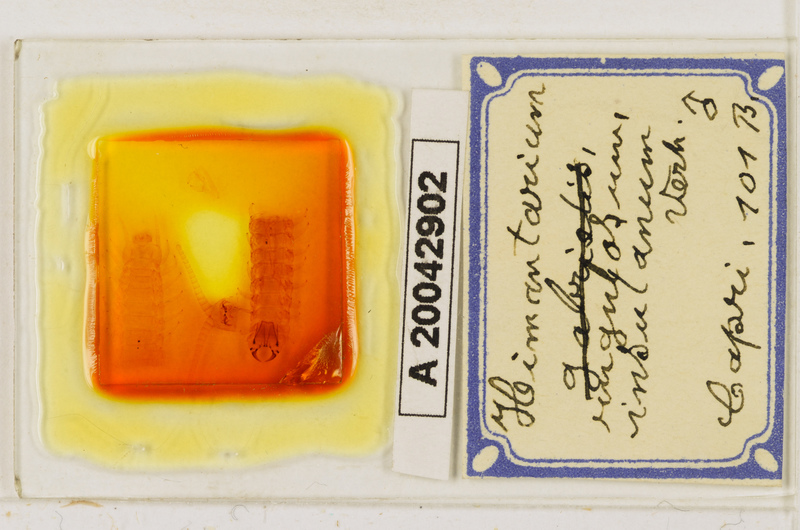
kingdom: Animalia
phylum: Arthropoda
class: Chilopoda
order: Geophilomorpha
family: Himantariidae
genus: Himantarium
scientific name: Himantarium gabrielis
